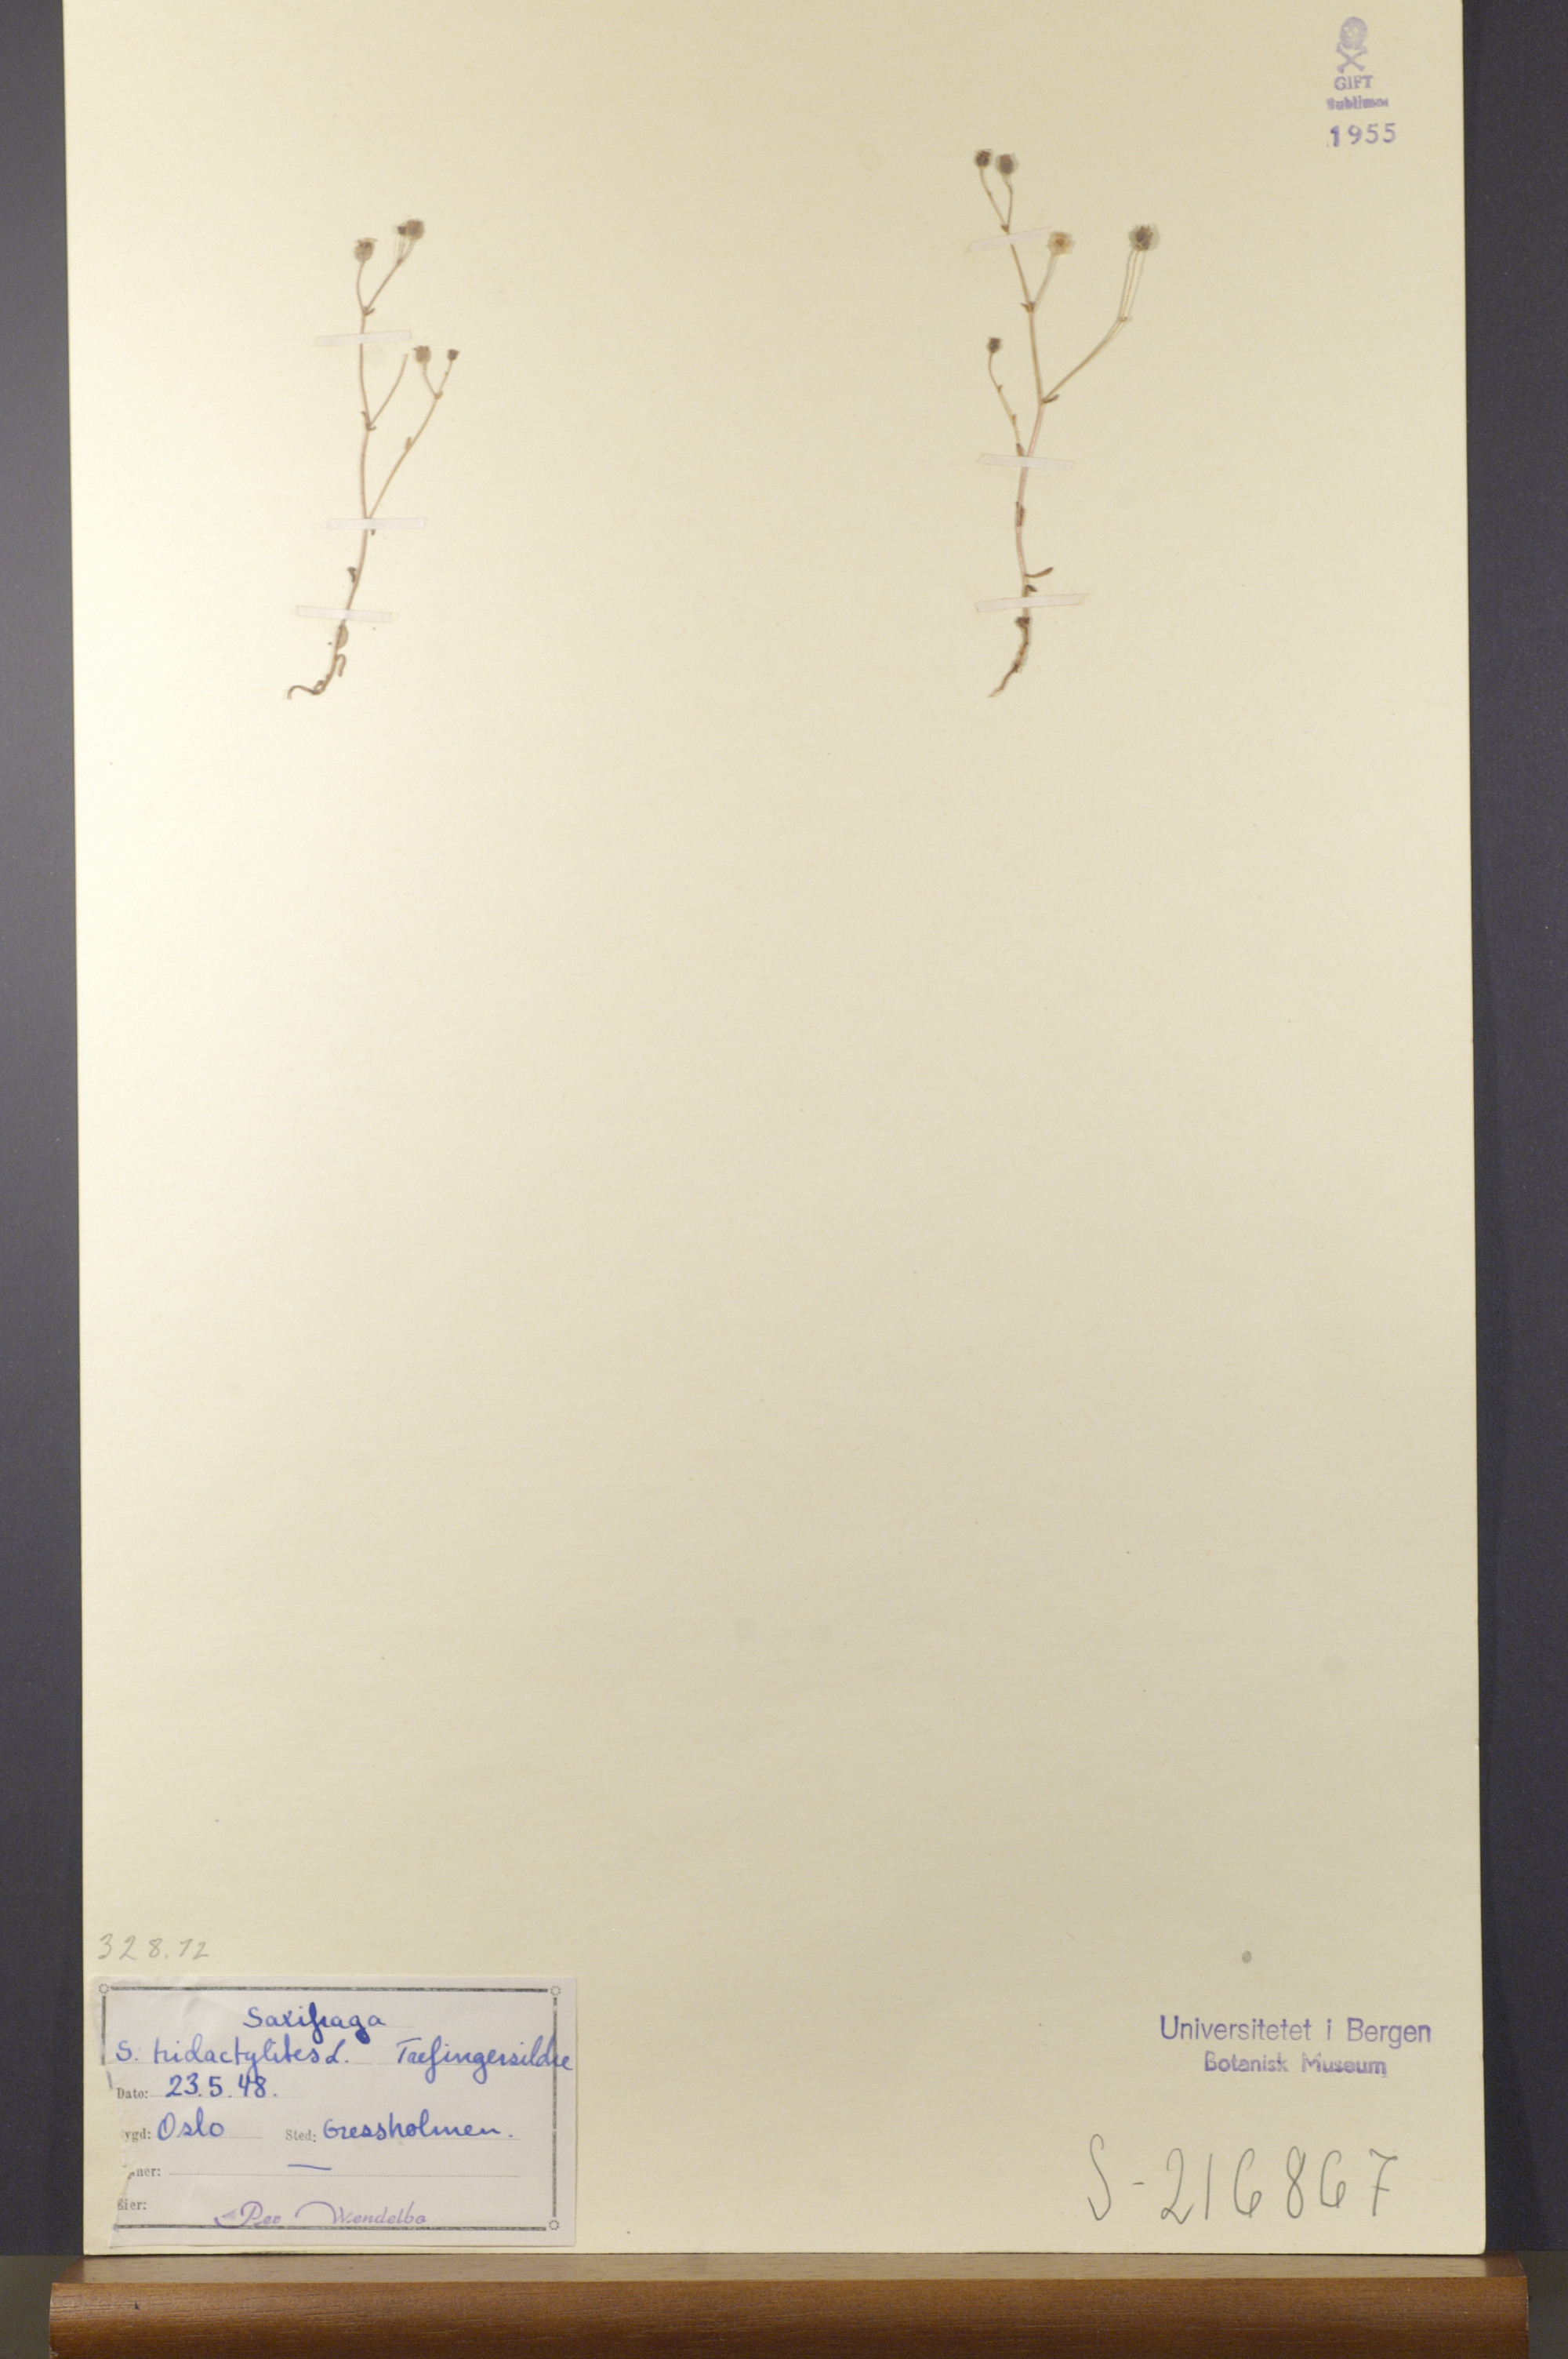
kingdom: Plantae
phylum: Tracheophyta
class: Magnoliopsida
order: Saxifragales
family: Saxifragaceae
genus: Saxifraga
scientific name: Saxifraga tridactylites
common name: Rue-leaved saxifrage
